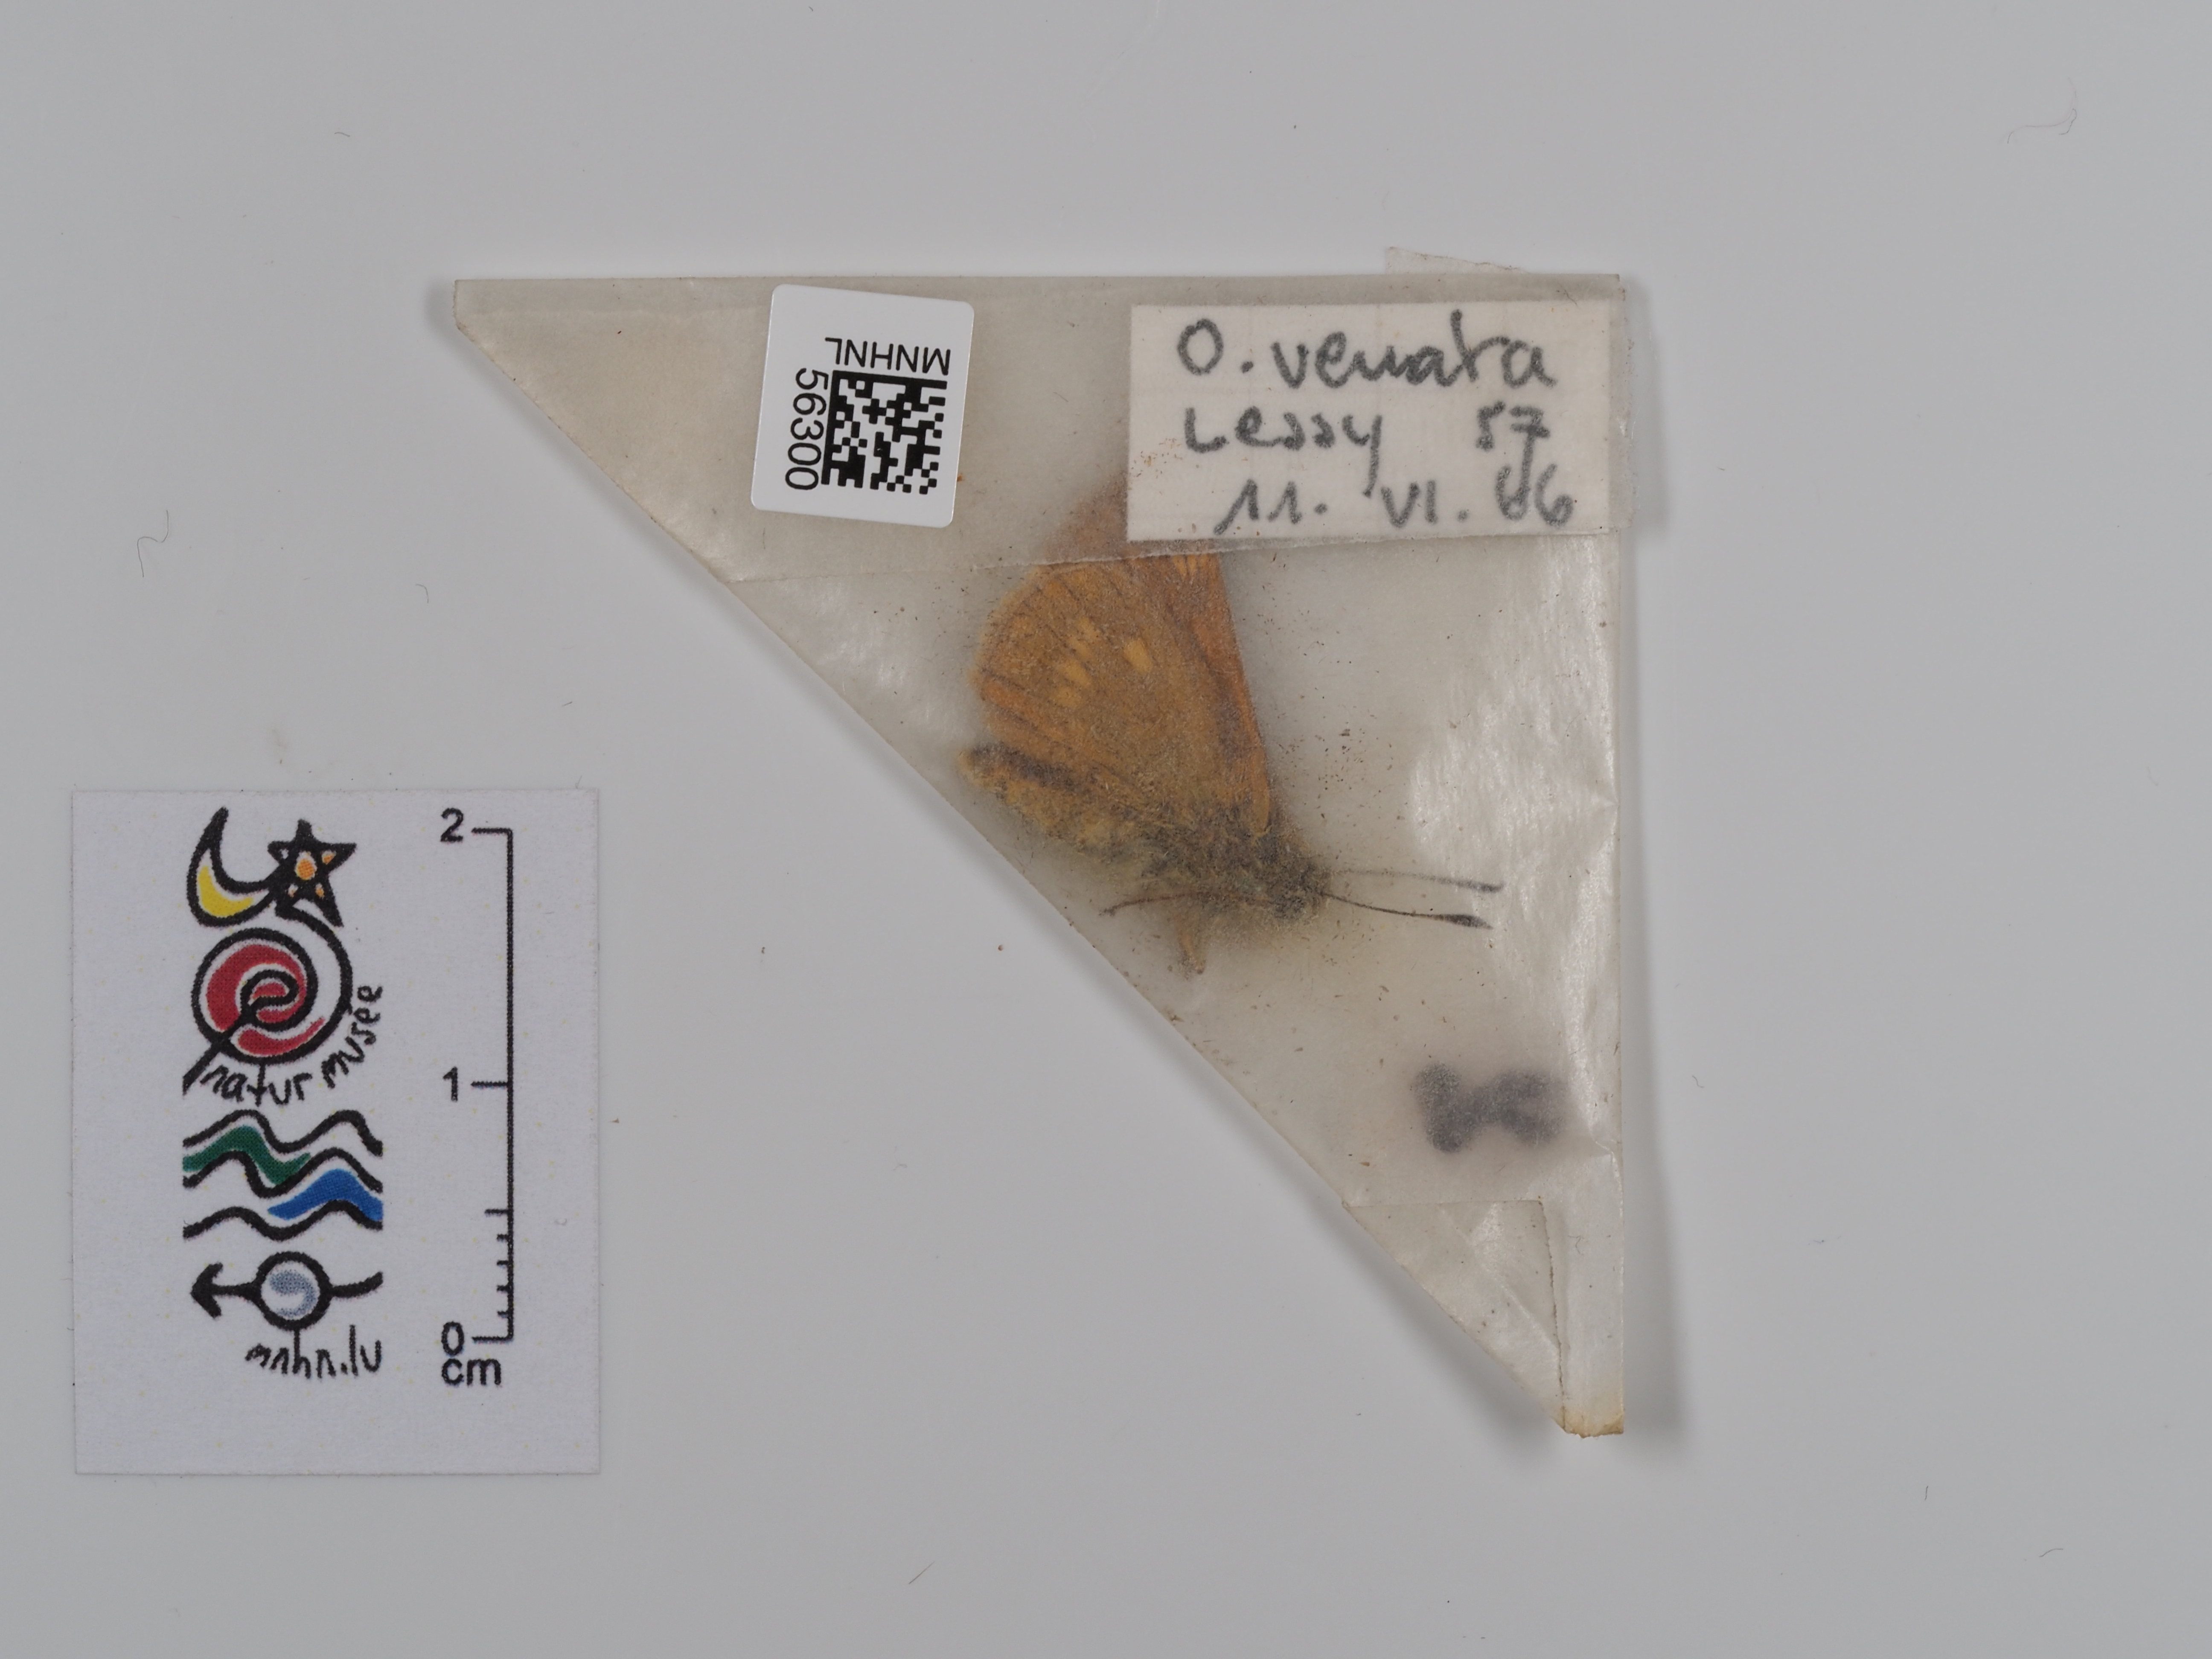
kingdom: Animalia
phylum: Arthropoda
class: Insecta
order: Lepidoptera
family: Hesperiidae
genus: Ochlodes
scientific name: Ochlodes venata
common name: Large skipper
